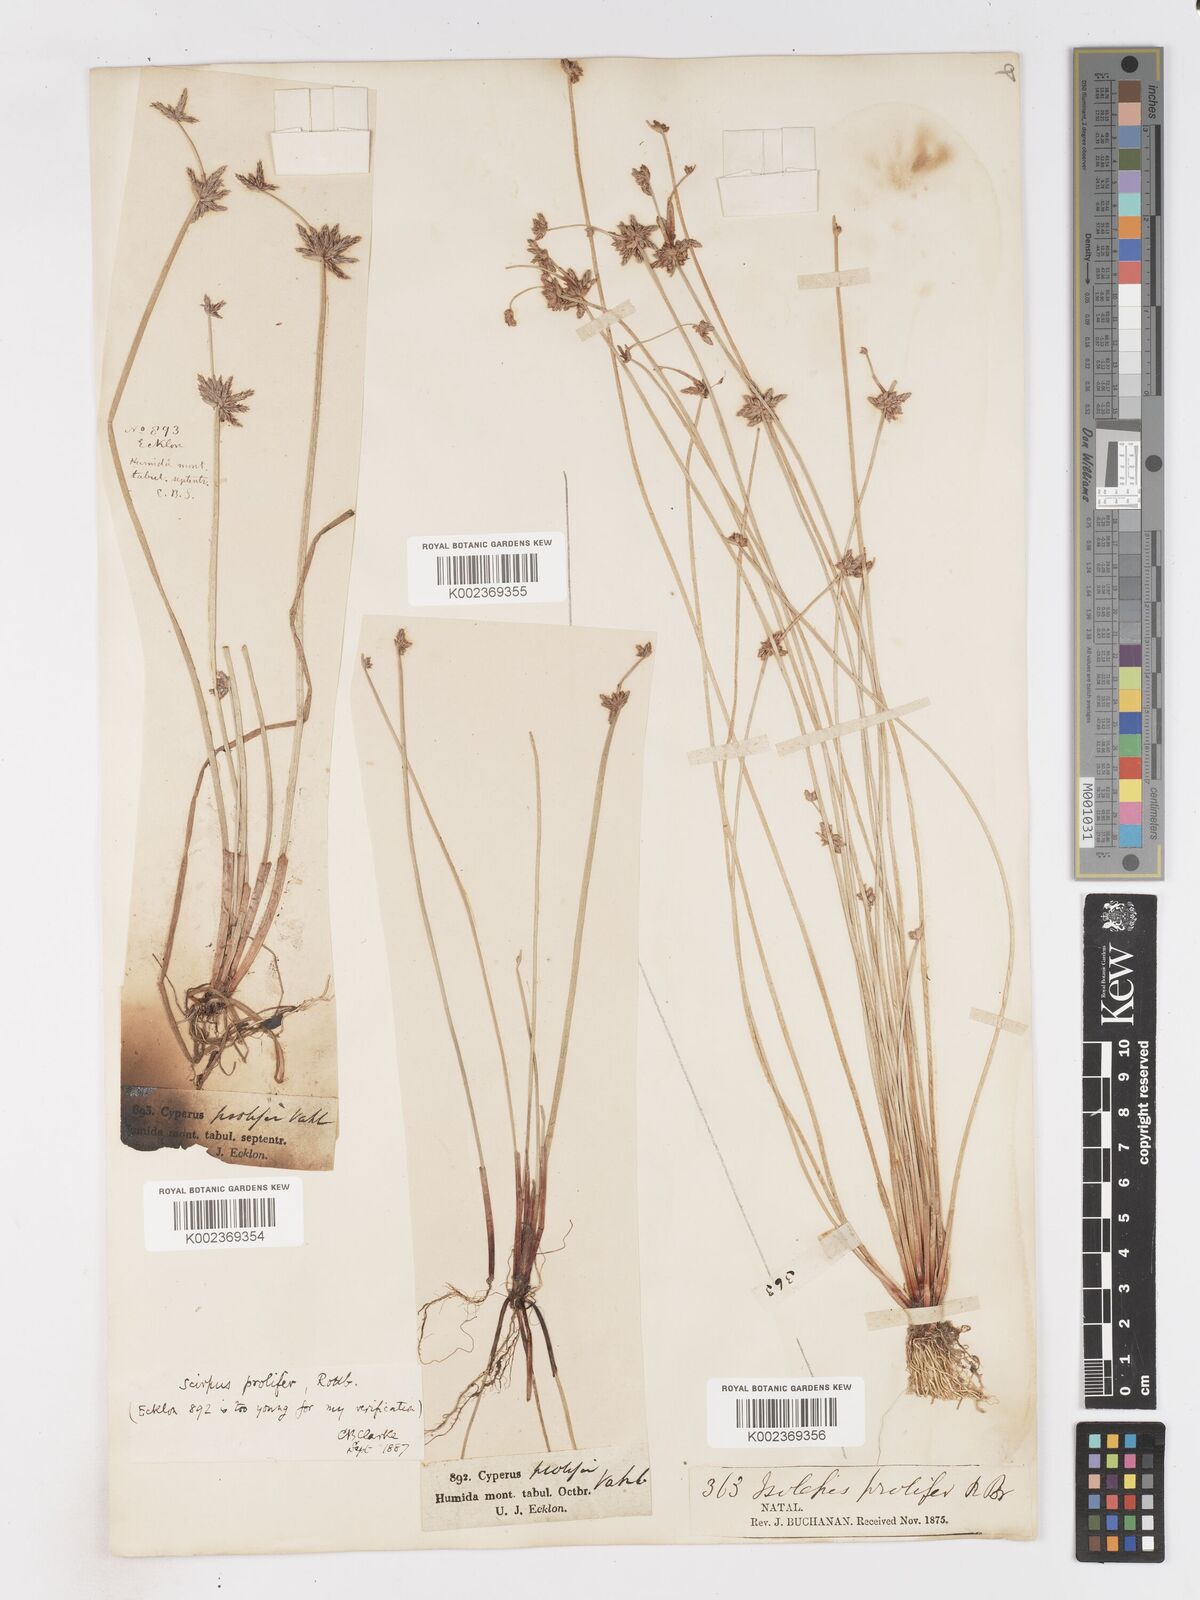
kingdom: Plantae
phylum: Tracheophyta
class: Liliopsida
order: Poales
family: Cyperaceae
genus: Isolepis
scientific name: Isolepis prolifera
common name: Proliferating bulrush
